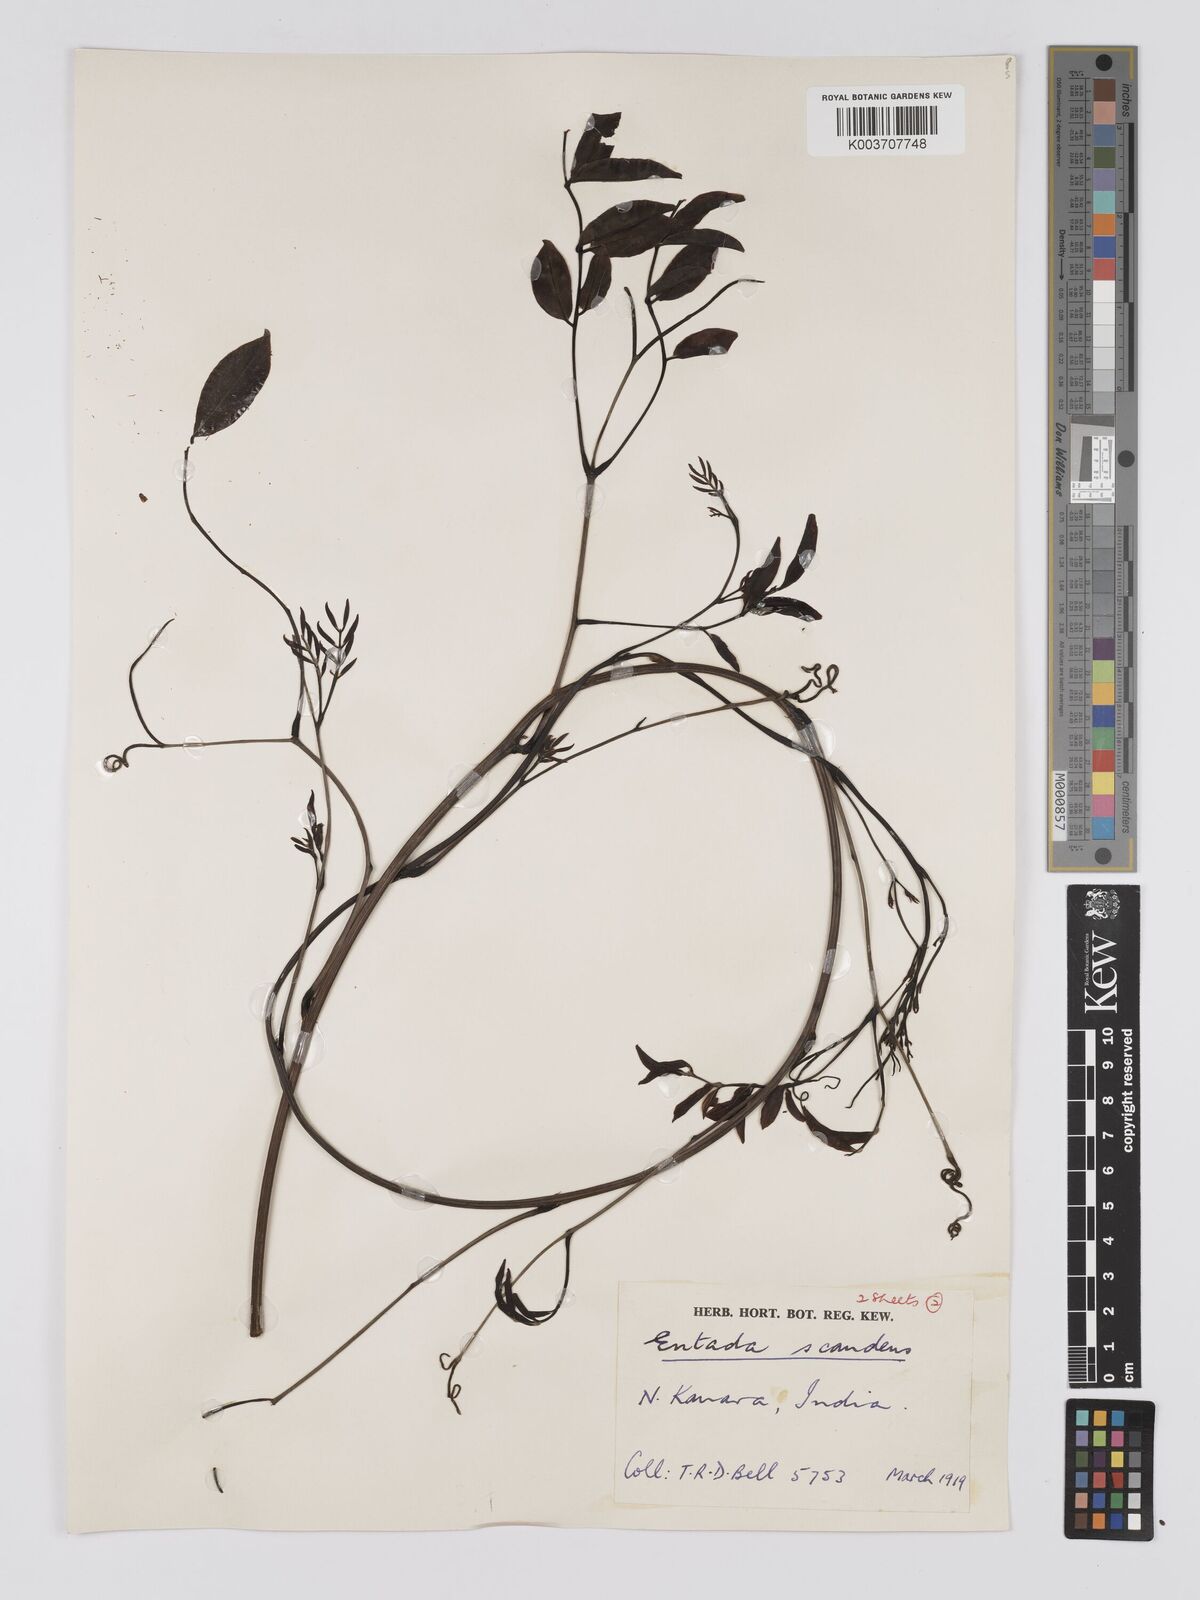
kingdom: Plantae
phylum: Tracheophyta
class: Magnoliopsida
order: Fabales
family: Fabaceae
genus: Entada
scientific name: Entada rheedei
